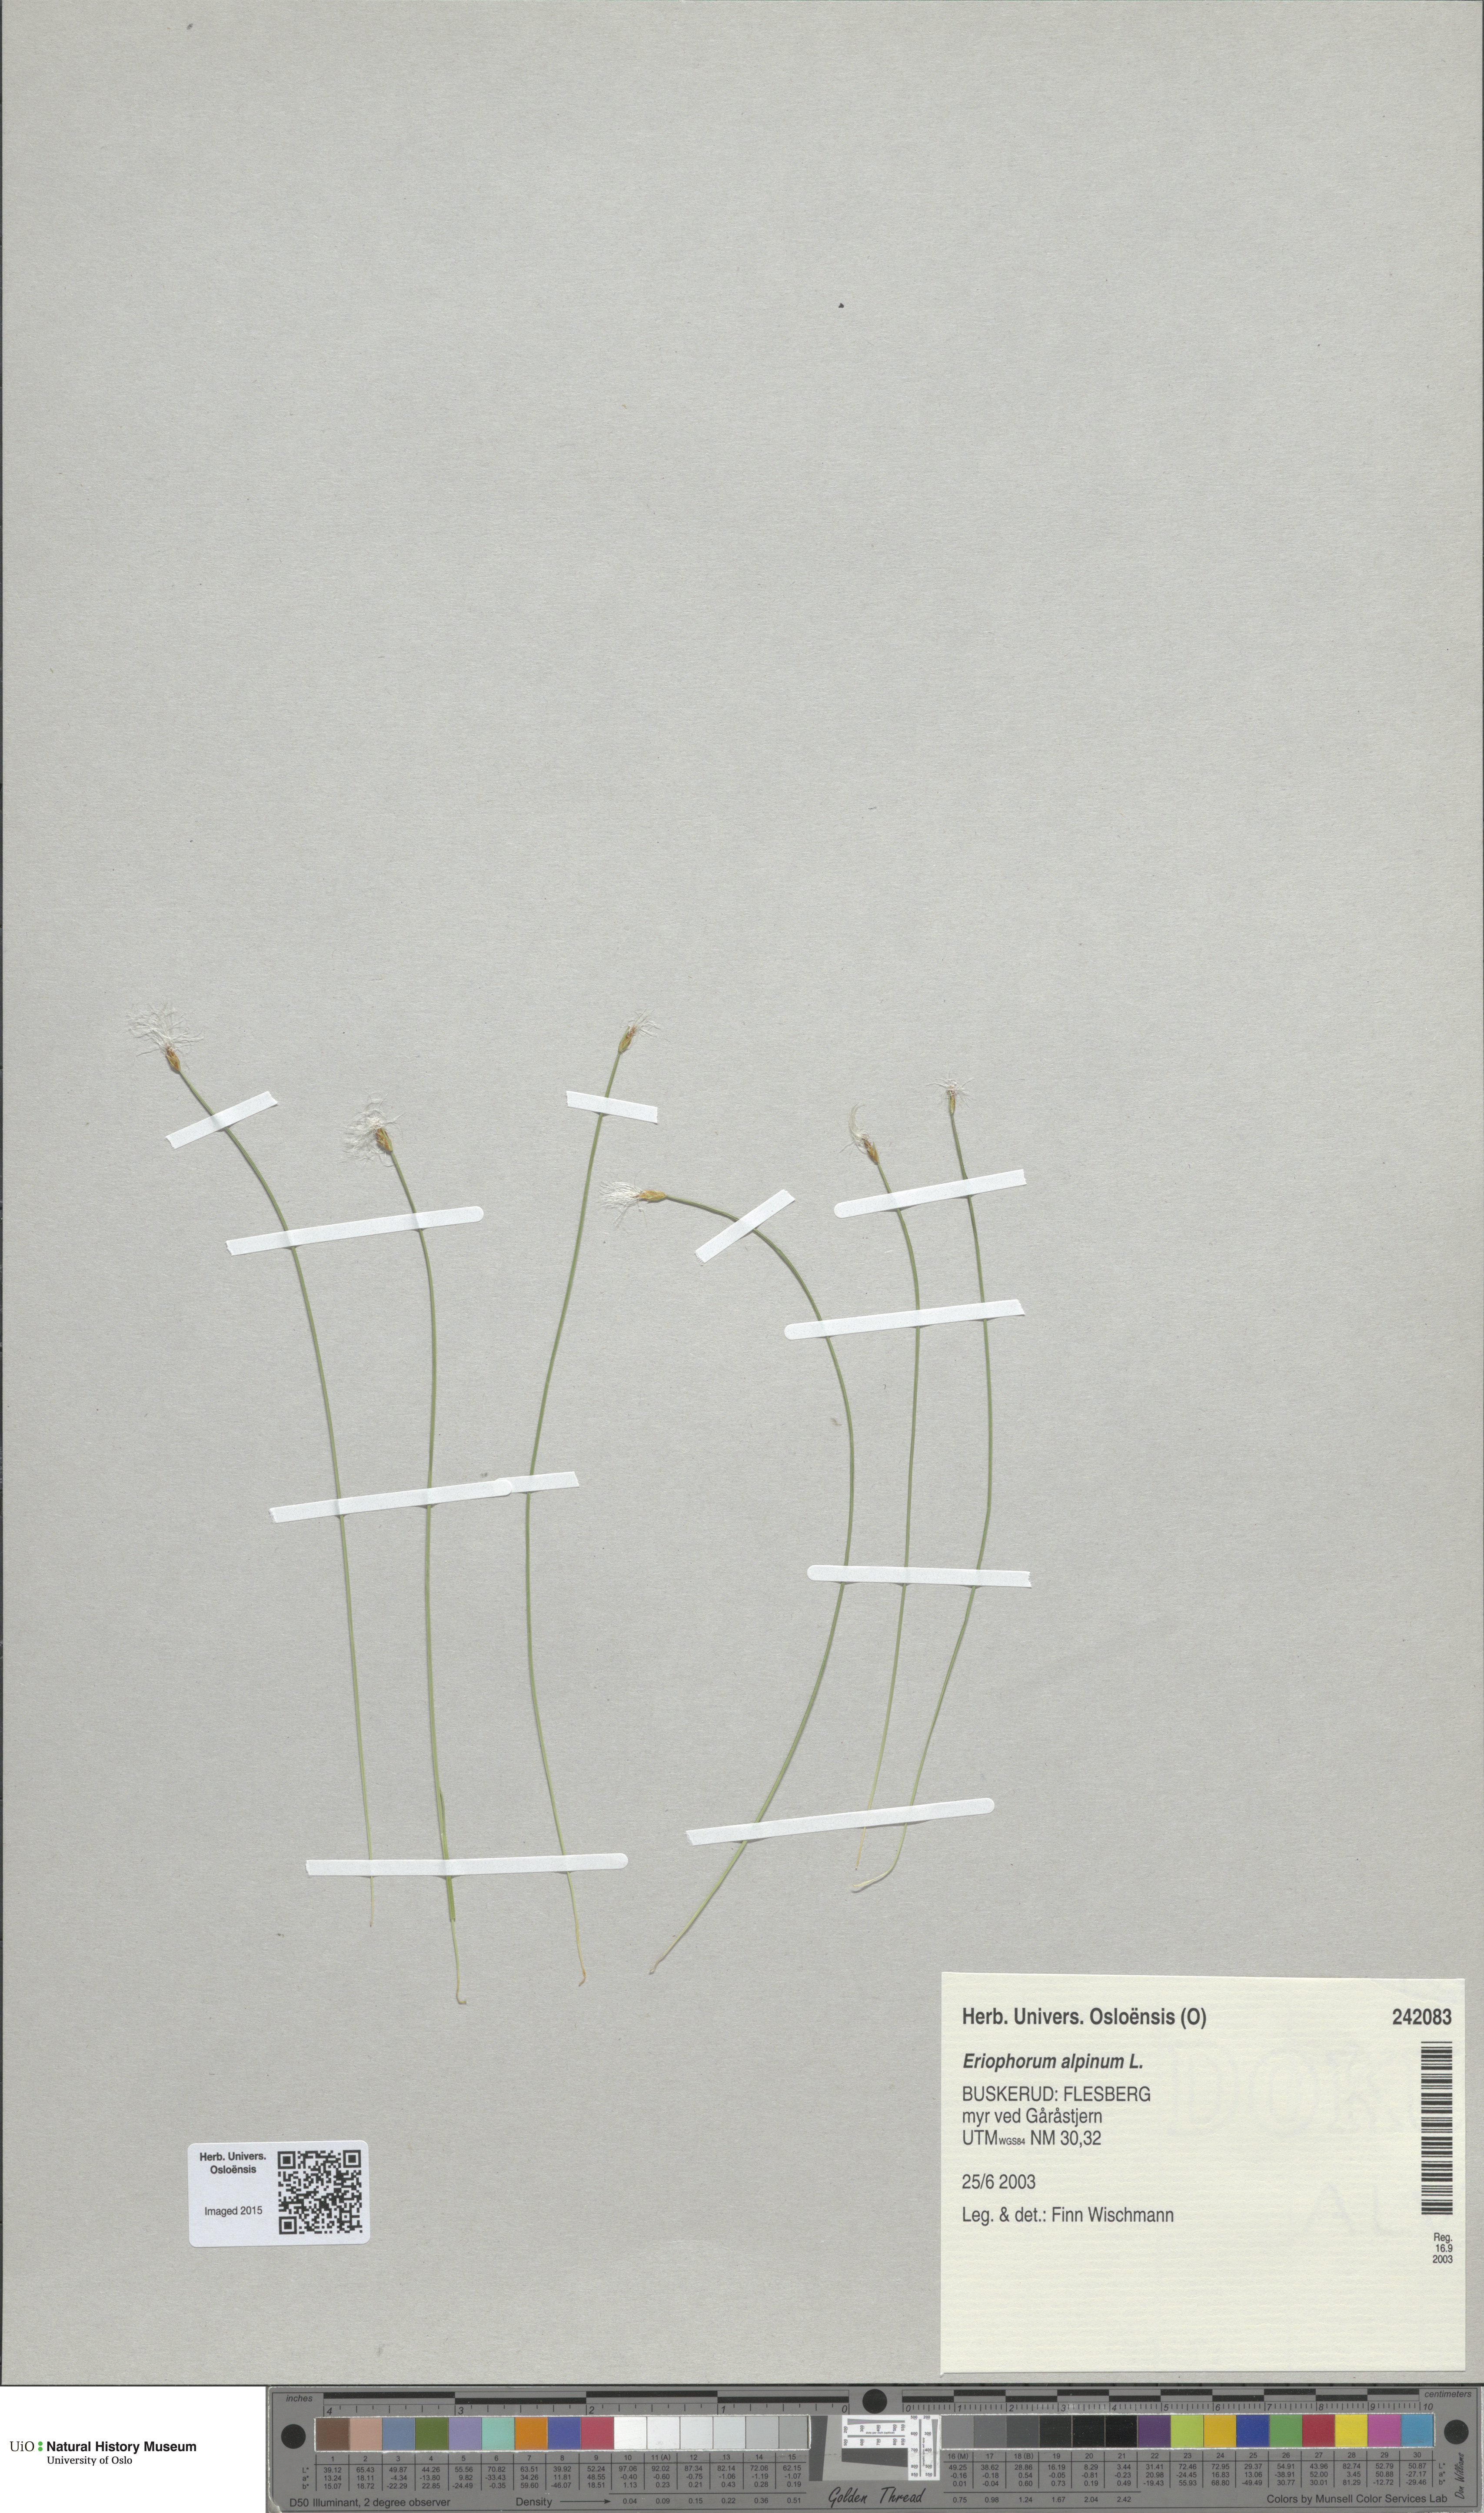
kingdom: Plantae
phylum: Tracheophyta
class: Liliopsida
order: Poales
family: Cyperaceae
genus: Trichophorum
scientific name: Trichophorum alpinum
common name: Alpine bulrush
